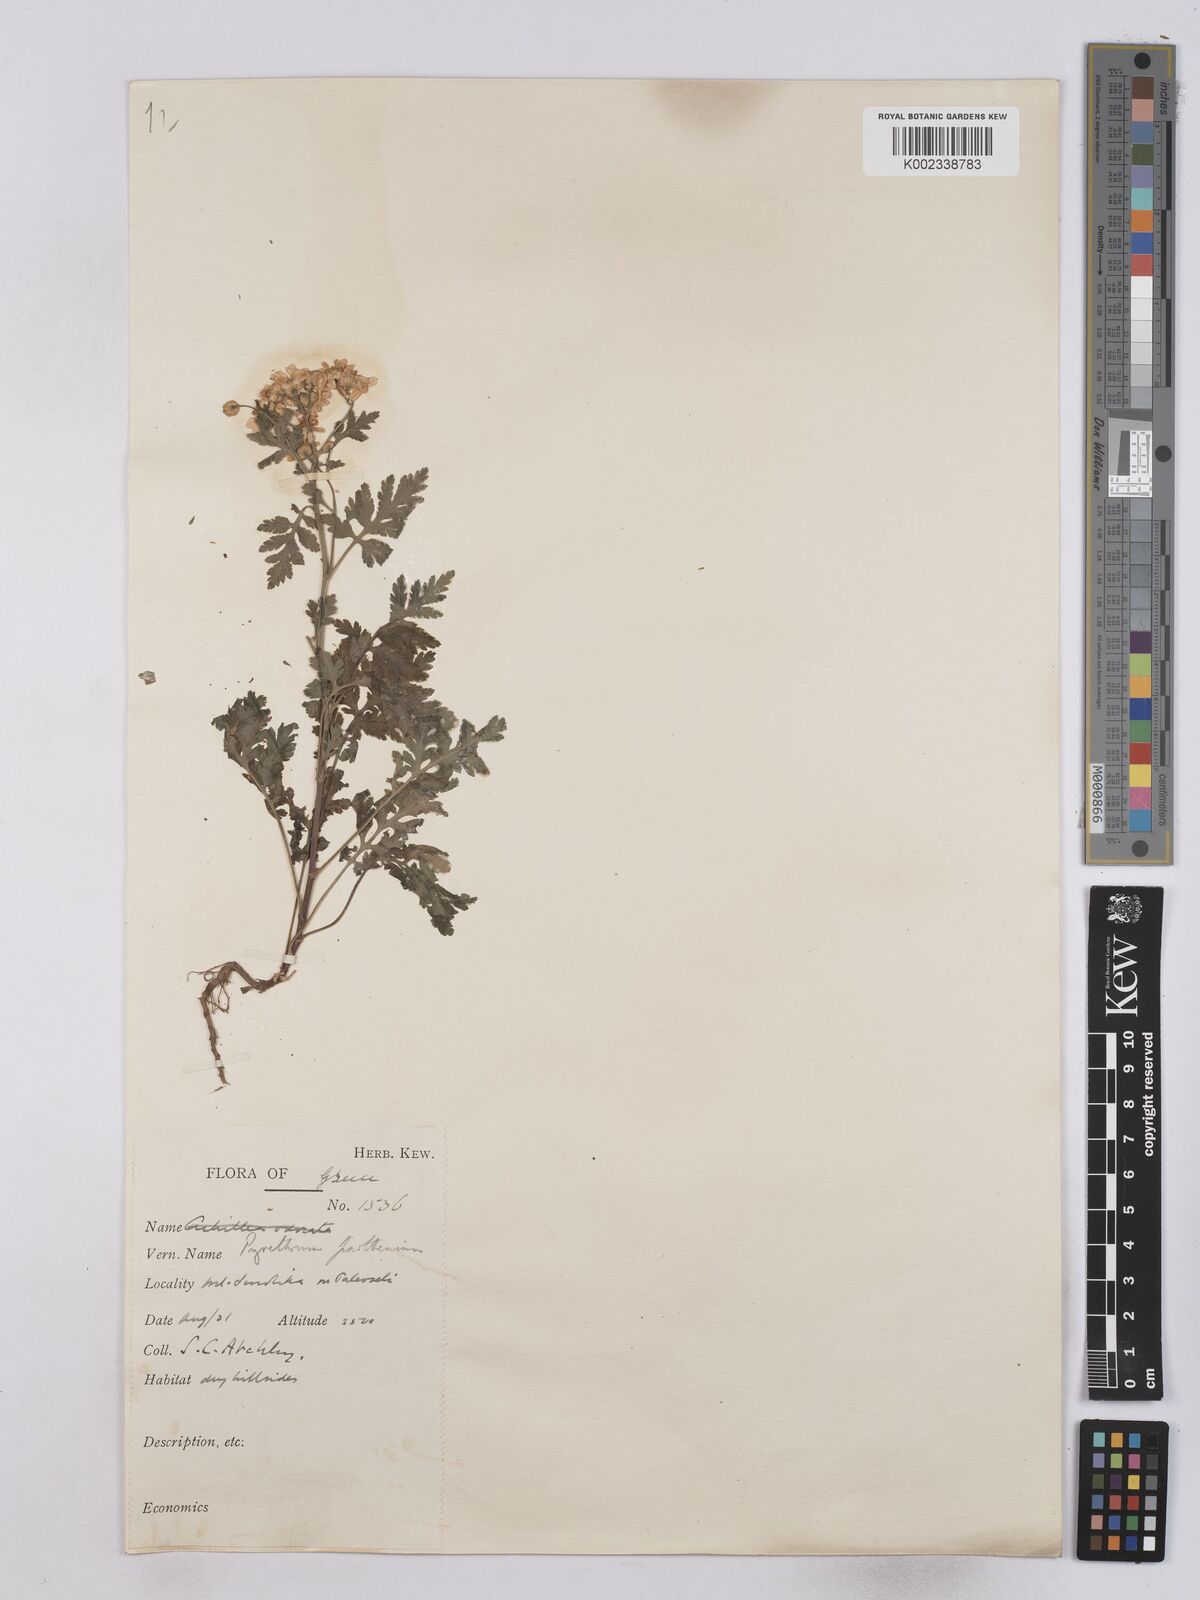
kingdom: Plantae
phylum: Tracheophyta
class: Magnoliopsida
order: Asterales
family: Asteraceae
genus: Tanacetum
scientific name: Tanacetum parthenium
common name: Feverfew
